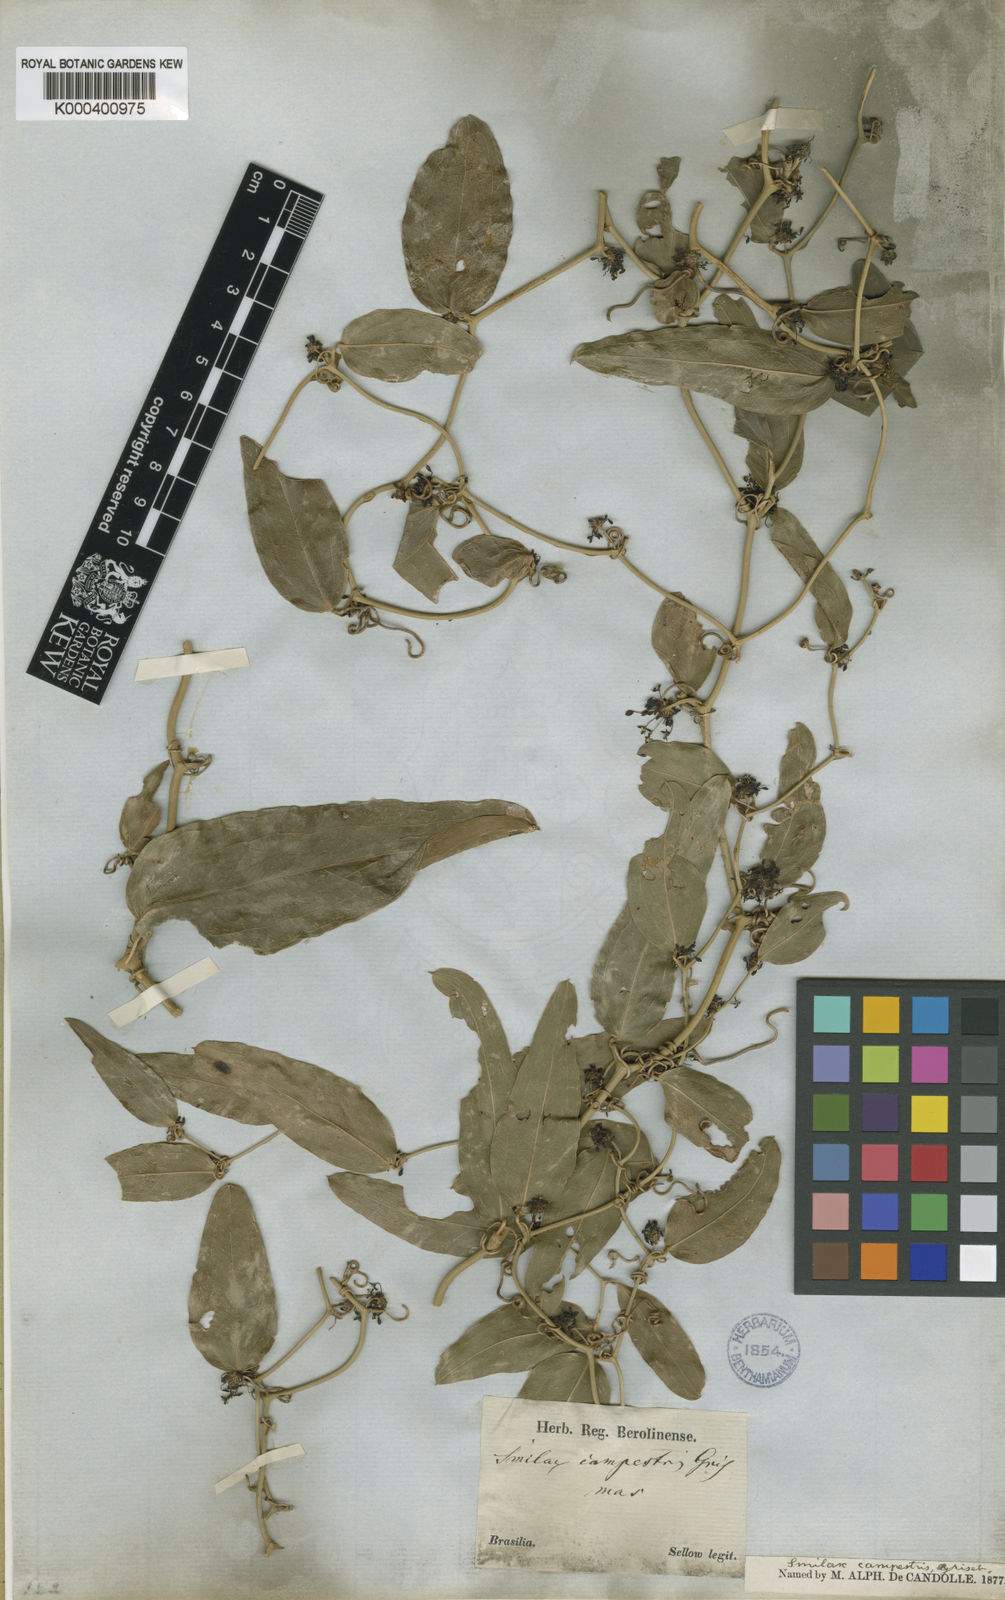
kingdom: Plantae
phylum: Tracheophyta
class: Liliopsida
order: Liliales
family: Smilacaceae
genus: Smilax
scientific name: Smilax campestris
